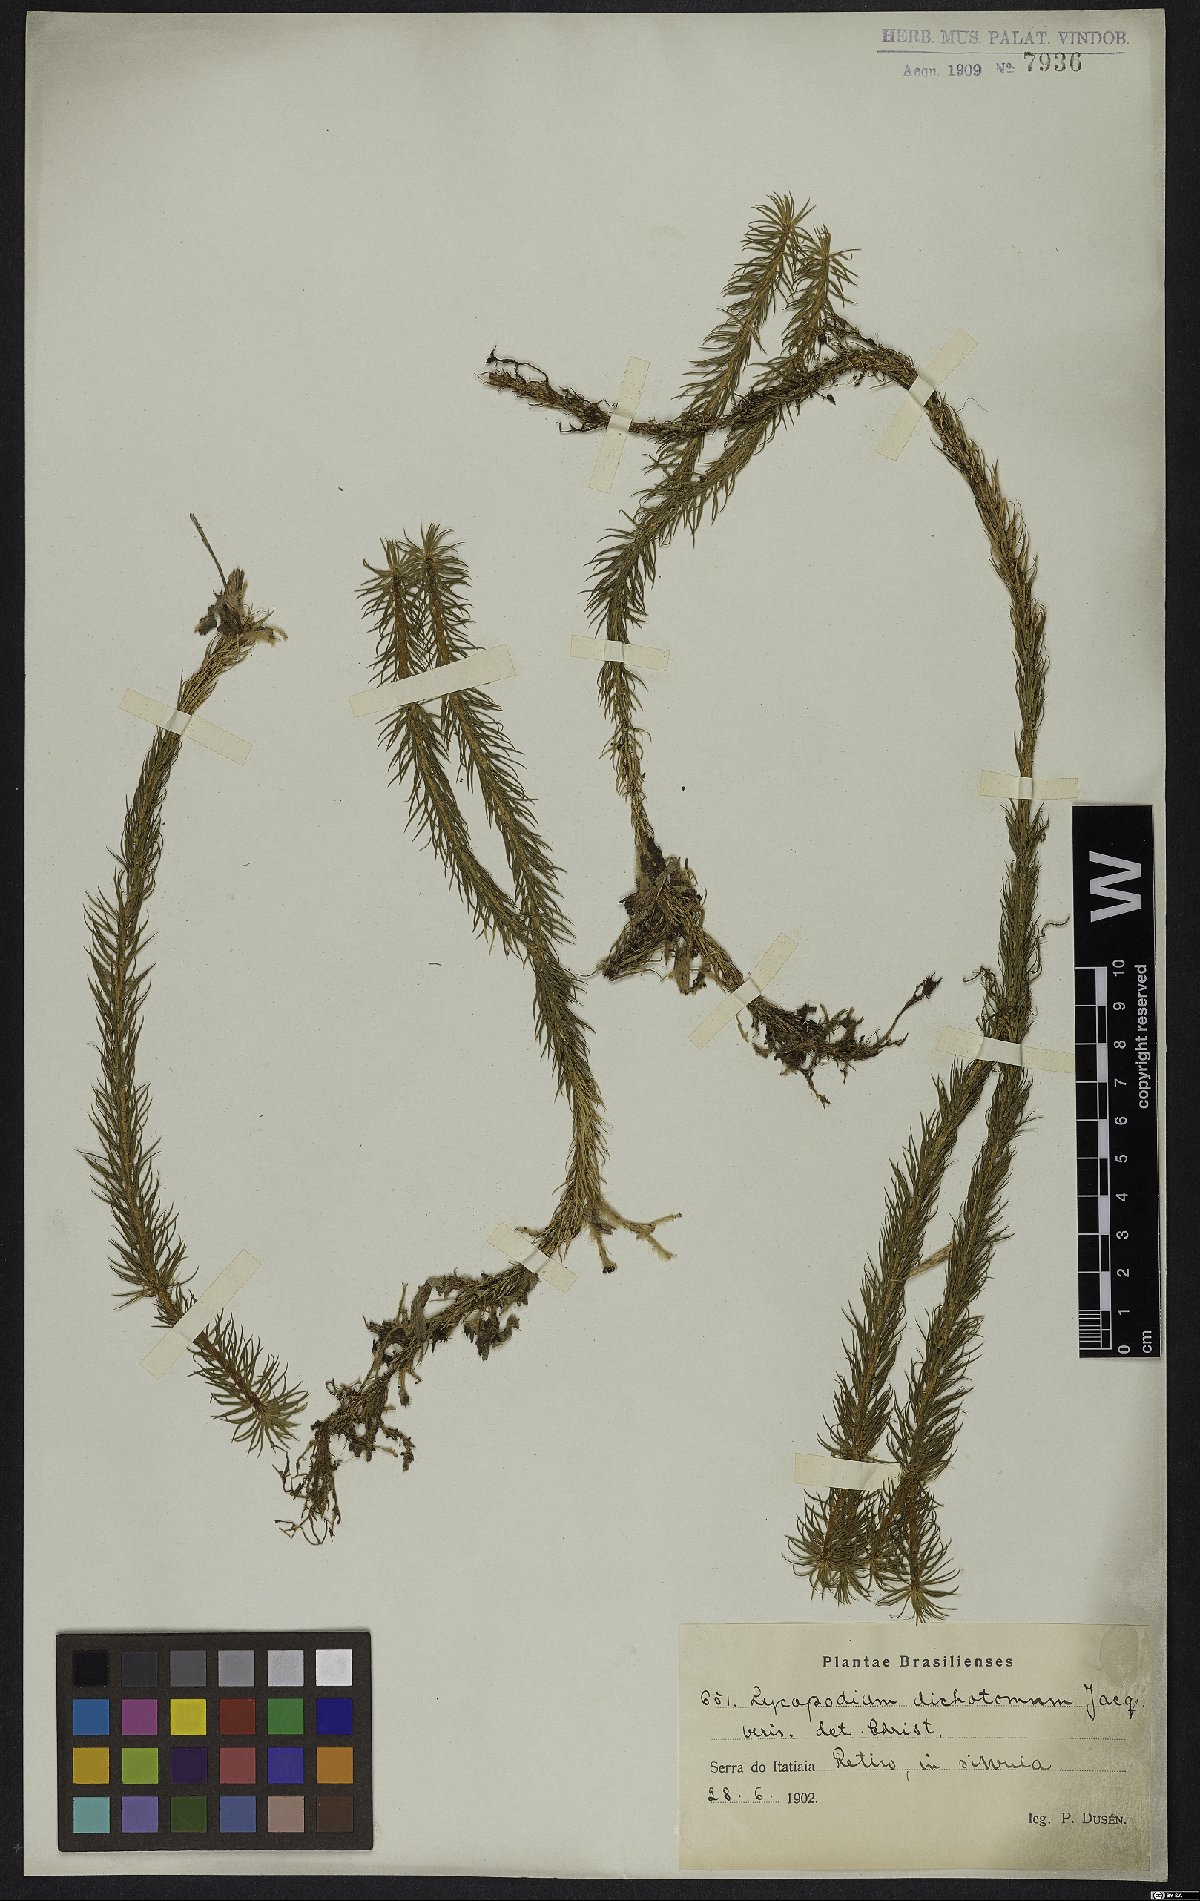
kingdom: Plantae
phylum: Tracheophyta
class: Lycopodiopsida
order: Lycopodiales
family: Lycopodiaceae
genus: Phlegmariurus
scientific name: Phlegmariurus dichotomus
